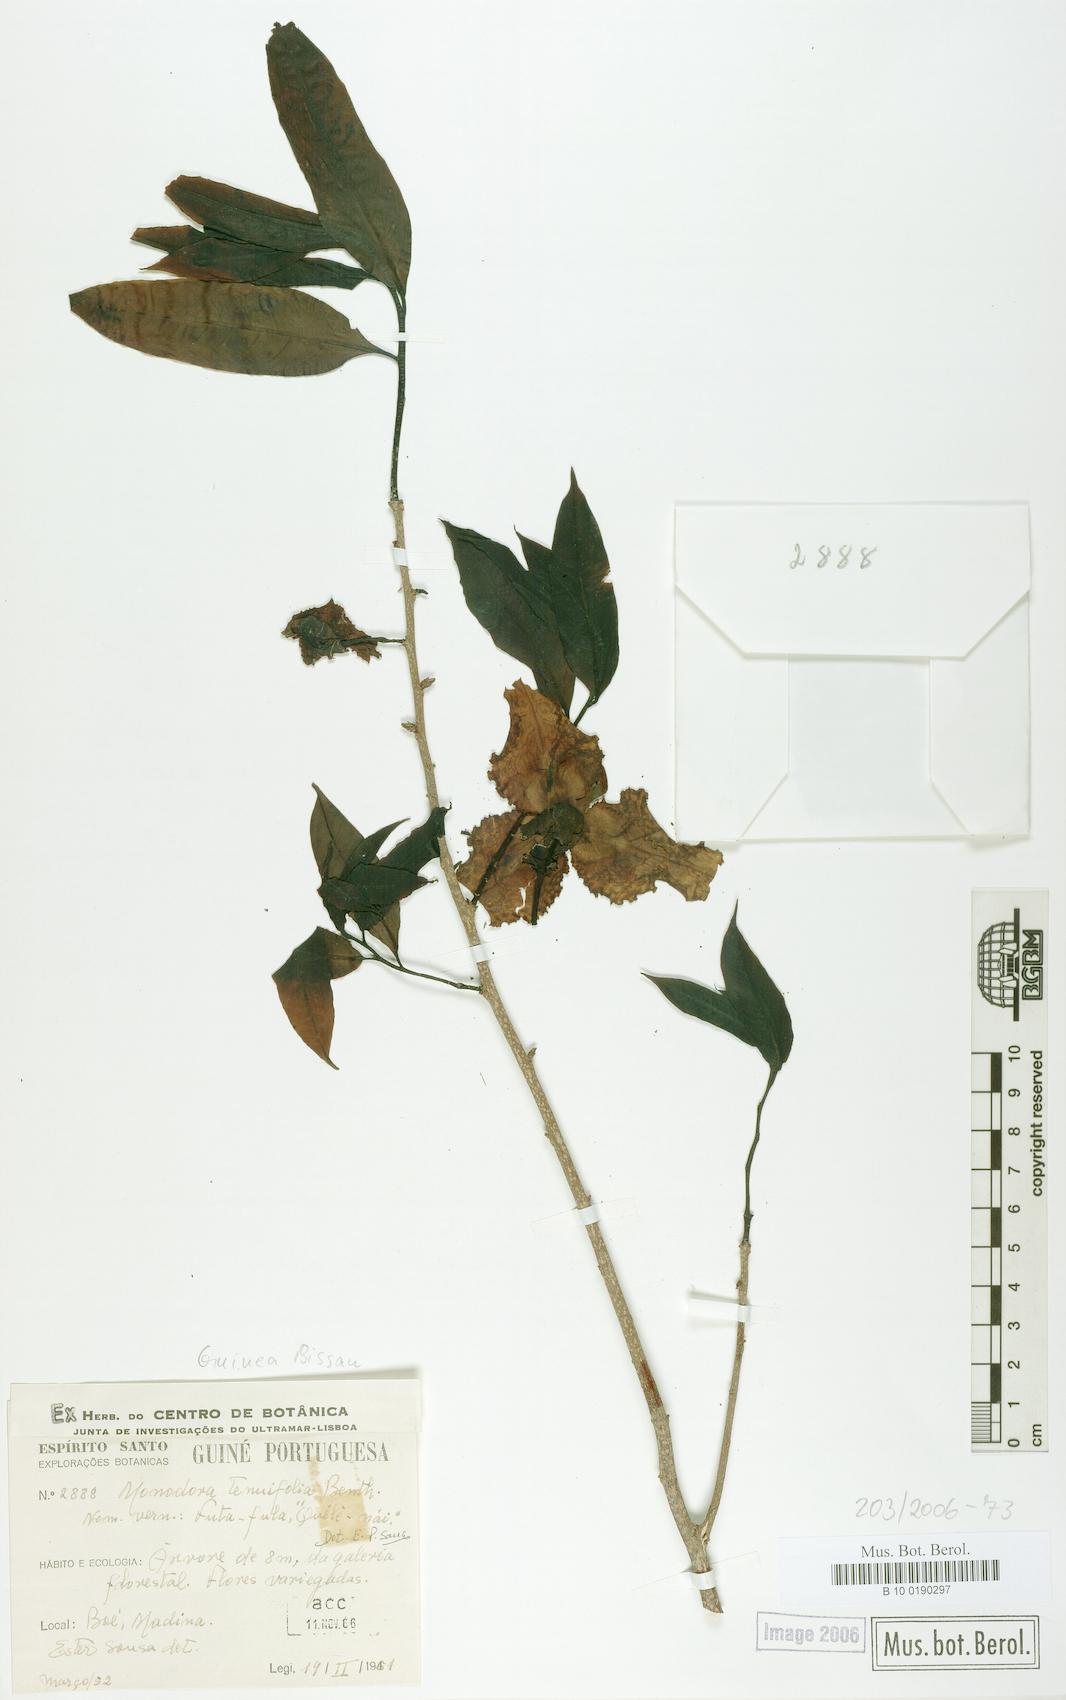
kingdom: Plantae
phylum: Tracheophyta
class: Magnoliopsida
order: Magnoliales
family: Annonaceae
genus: Monodora
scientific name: Monodora tenuifolia
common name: Orchidtree
